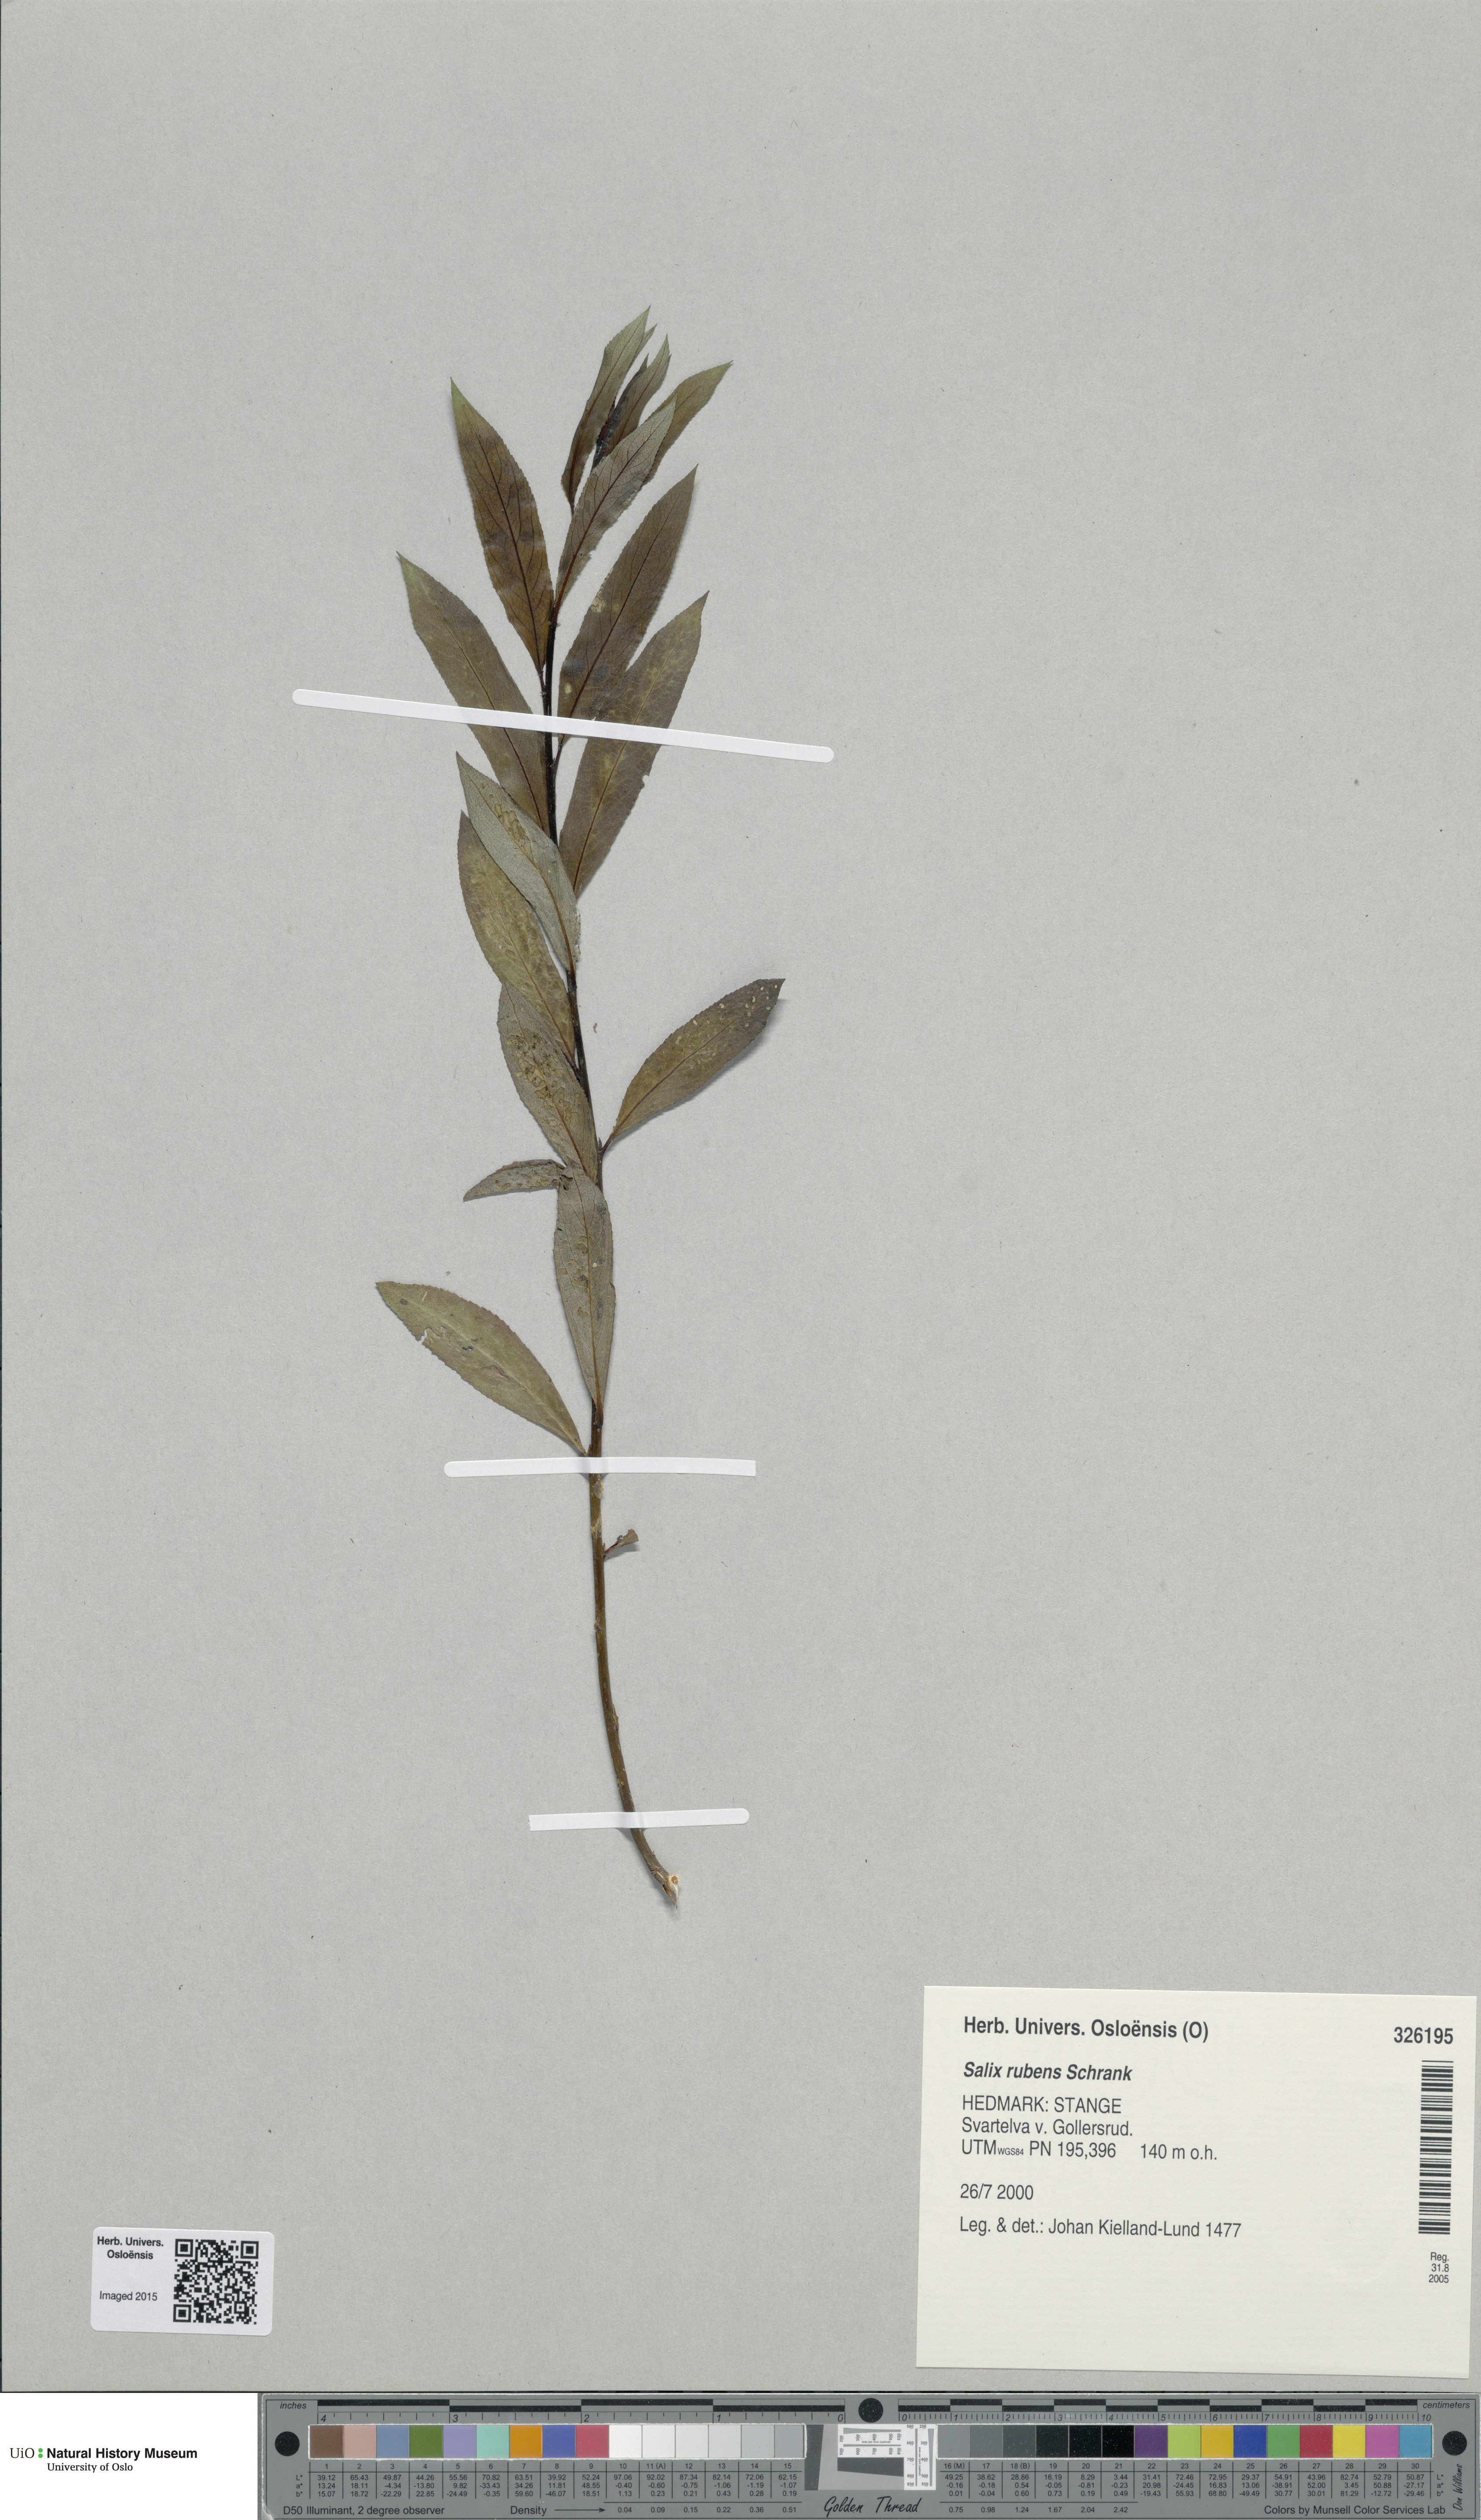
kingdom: Plantae
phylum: Tracheophyta
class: Magnoliopsida
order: Malpighiales
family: Salicaceae
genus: Salix
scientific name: Salix fragilis
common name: Crack willow
